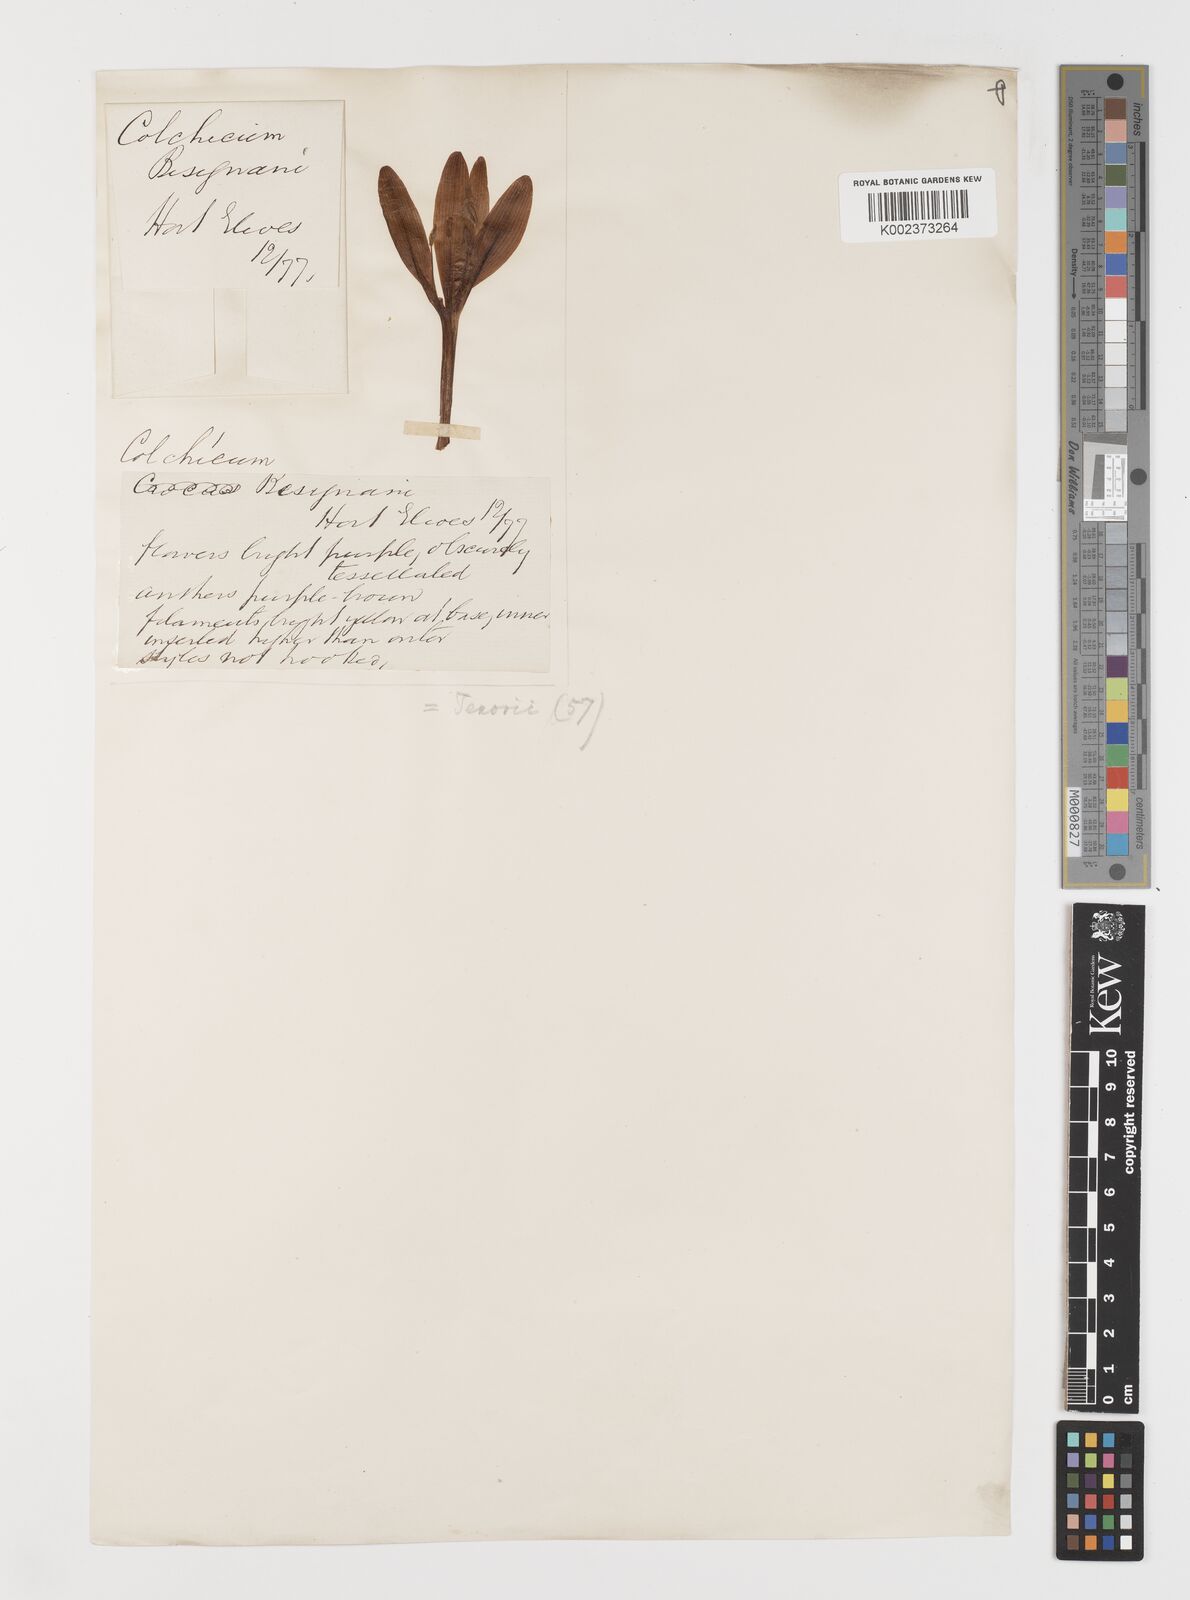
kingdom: Plantae
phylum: Tracheophyta
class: Liliopsida
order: Liliales
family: Colchicaceae
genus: Colchicum
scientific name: Colchicum cilicicum
